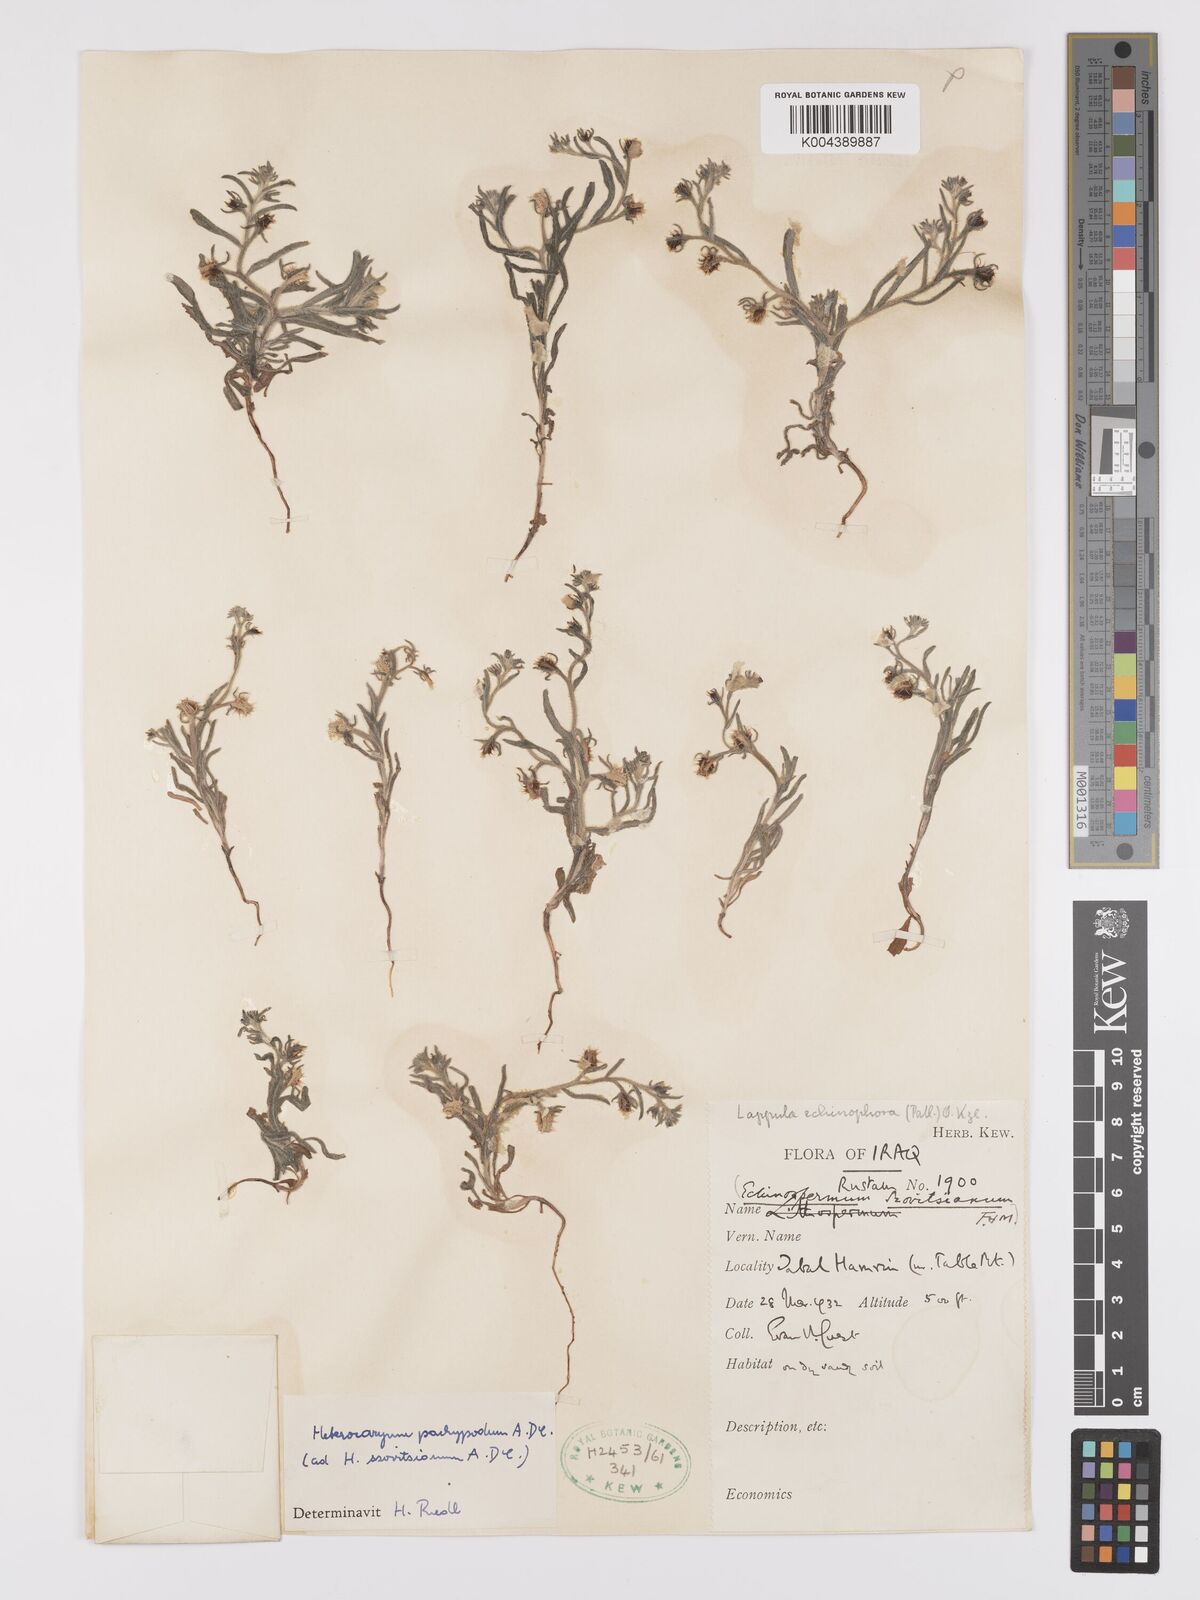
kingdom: Plantae
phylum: Tracheophyta
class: Magnoliopsida
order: Boraginales
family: Boraginaceae
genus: Lappula
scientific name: Lappula
